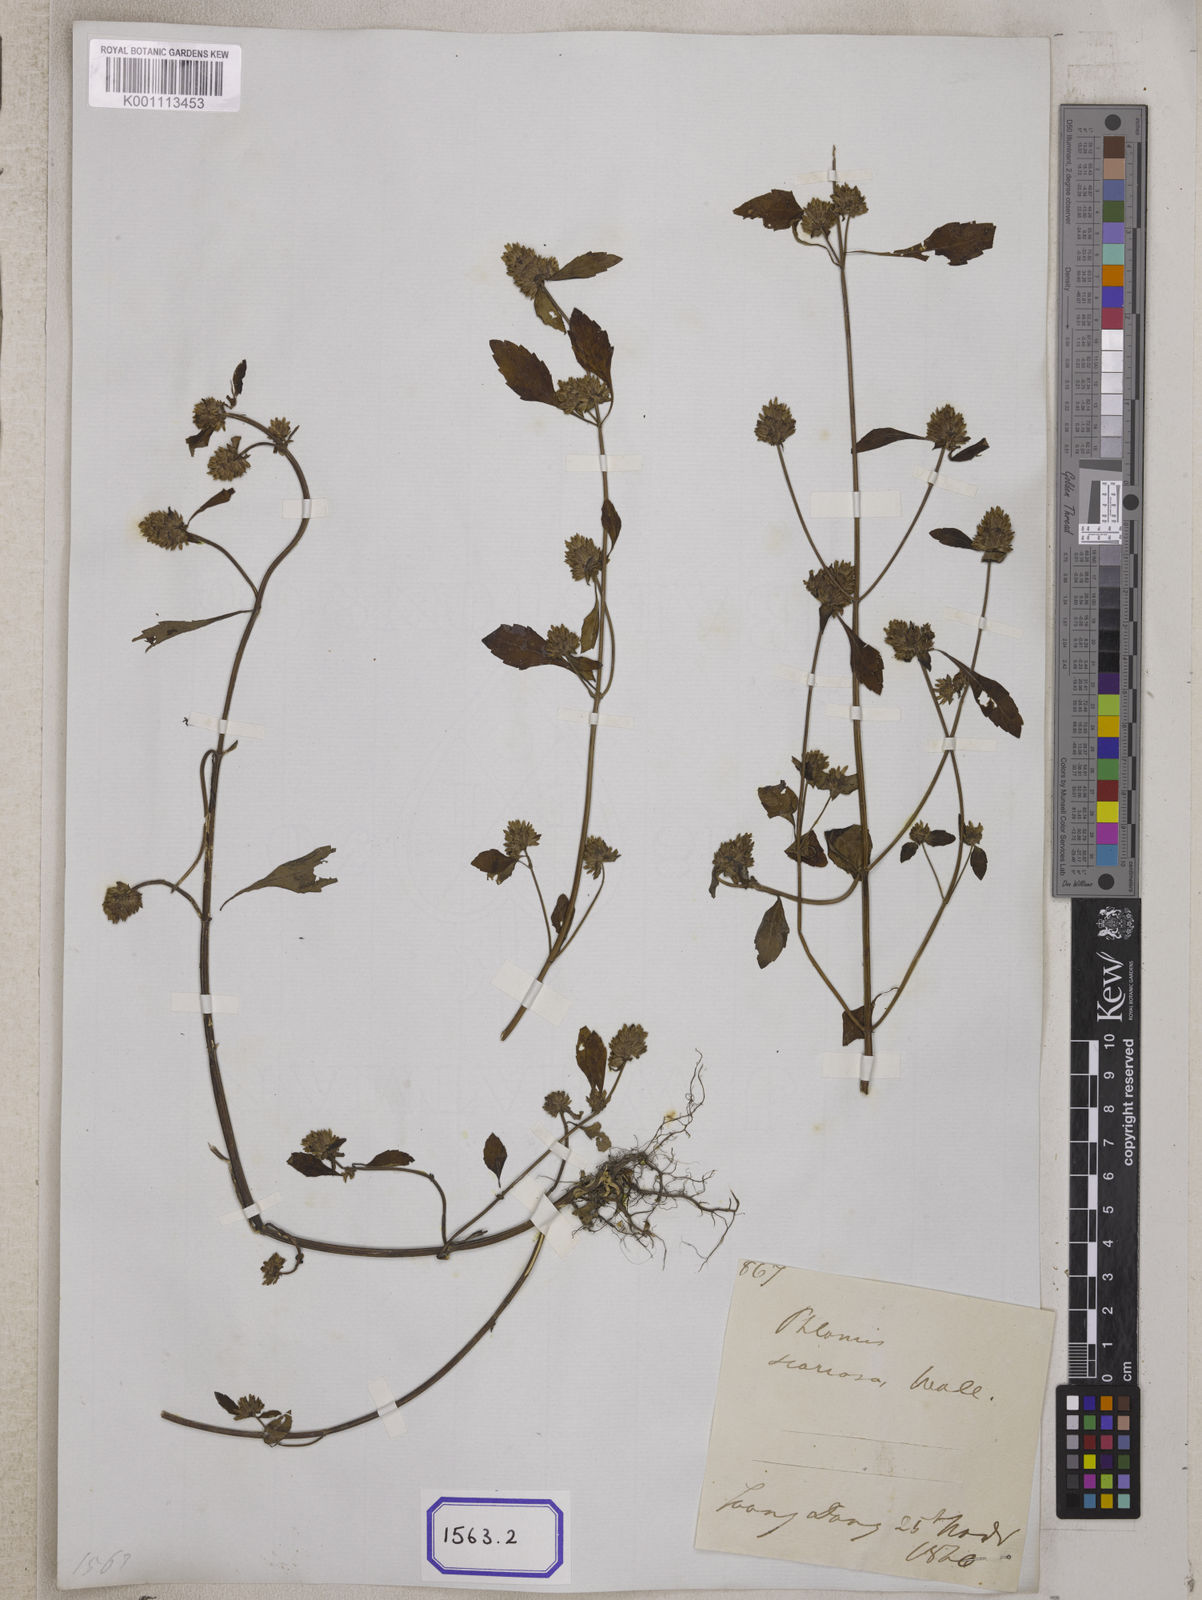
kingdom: Plantae
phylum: Tracheophyta
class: Magnoliopsida
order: Lamiales
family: Lamiaceae
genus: Platostoma
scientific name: Platostoma hispidum
